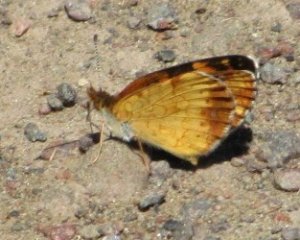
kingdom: Animalia
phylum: Arthropoda
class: Insecta
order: Lepidoptera
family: Nymphalidae
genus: Phyciodes
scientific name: Phyciodes tharos
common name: Northern Crescent
